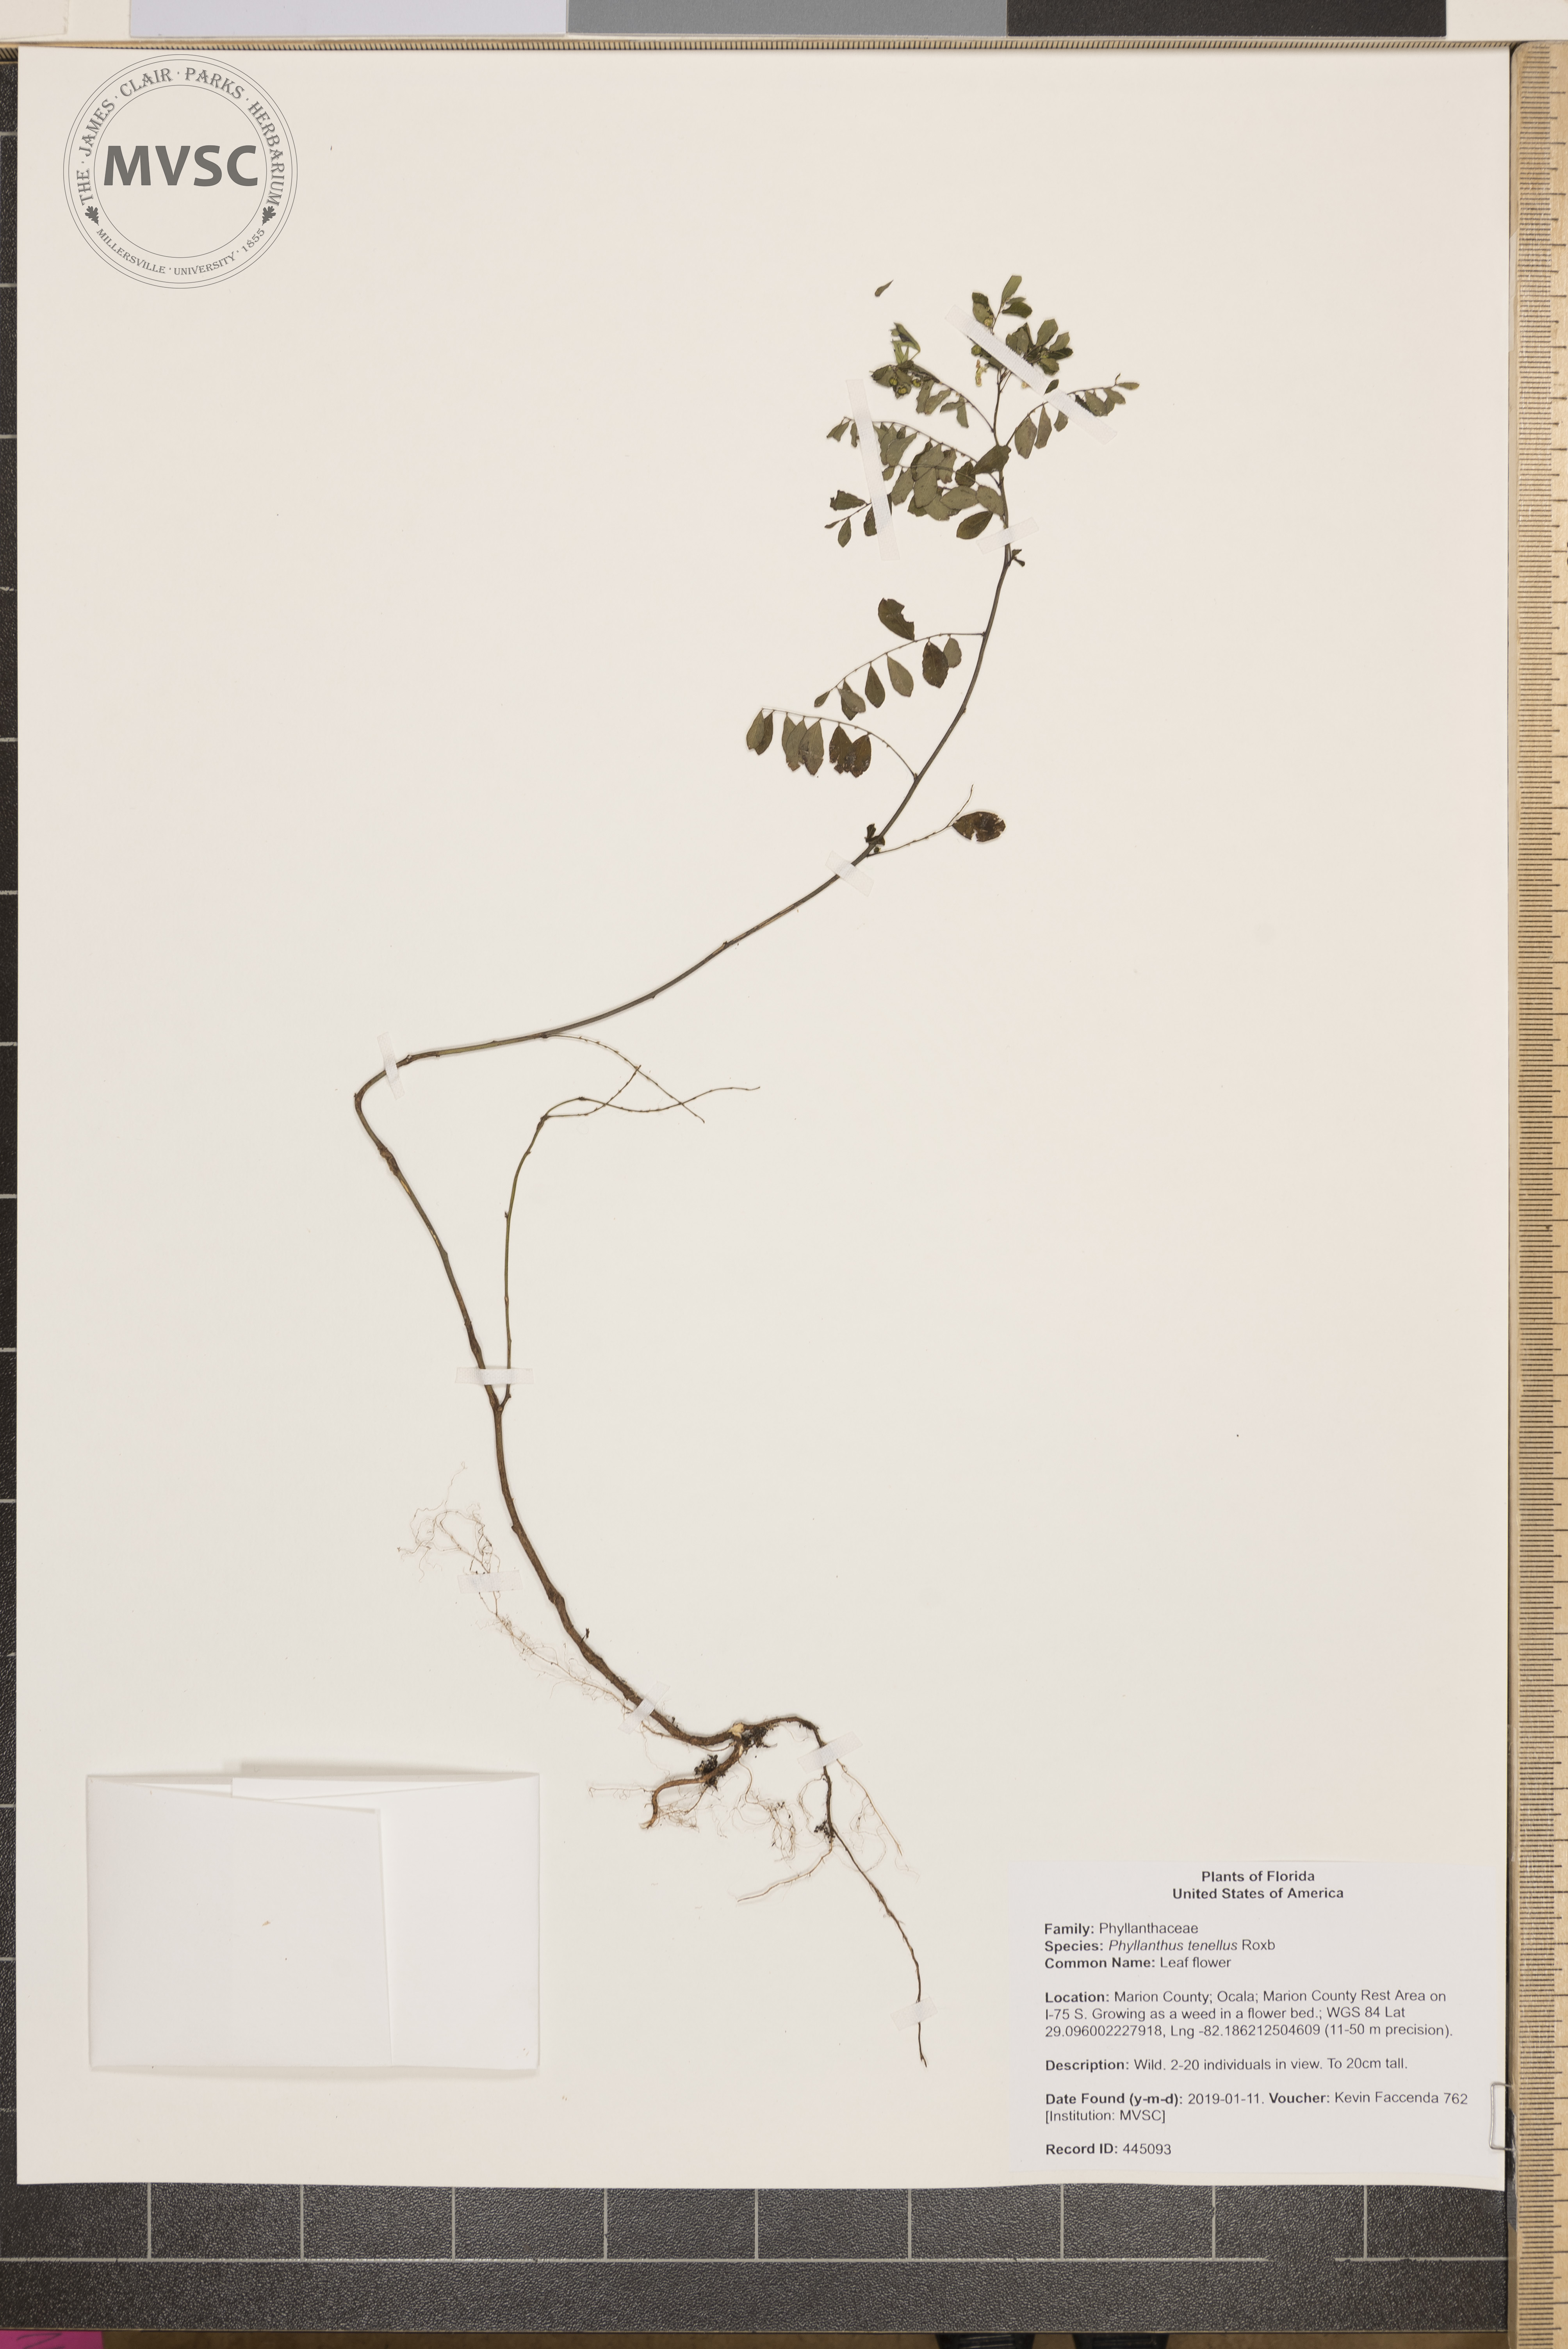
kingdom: Plantae
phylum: Tracheophyta
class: Magnoliopsida
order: Malpighiales
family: Phyllanthaceae
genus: Phyllanthus
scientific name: Phyllanthus tenellus
